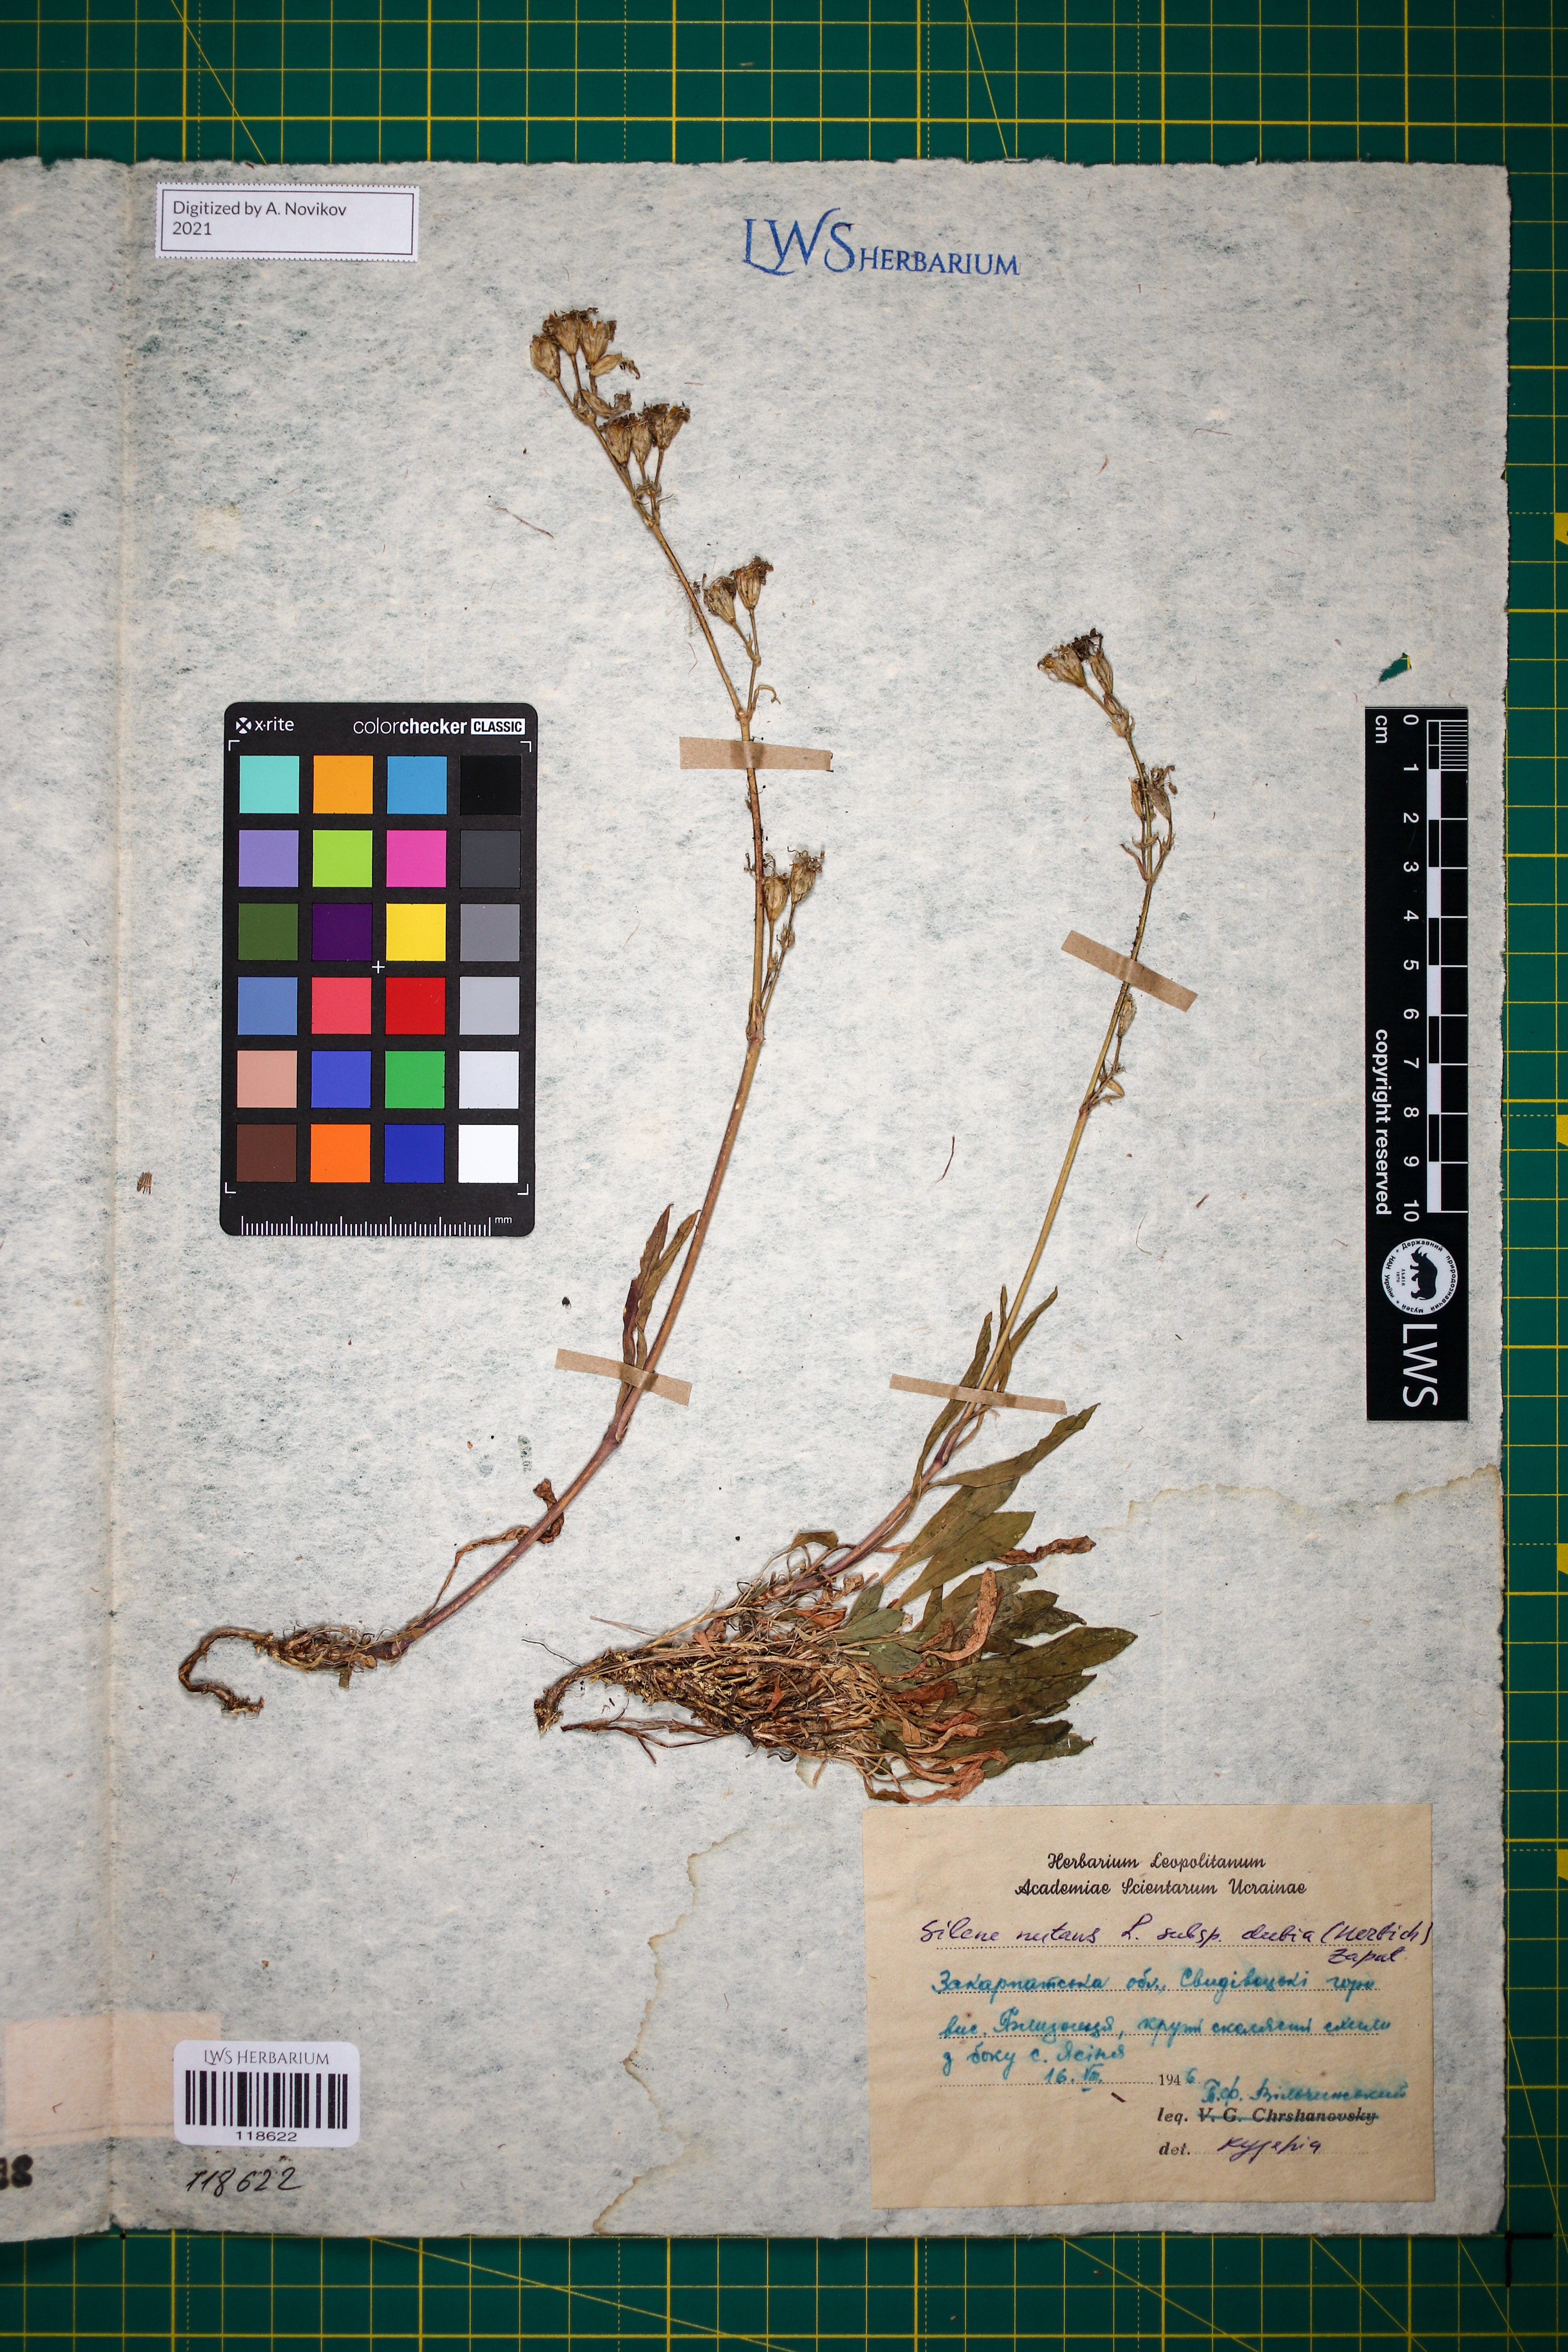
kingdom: Plantae
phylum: Tracheophyta
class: Magnoliopsida
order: Caryophyllales
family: Caryophyllaceae
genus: Silene
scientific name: Silene nutans
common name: Nottingham catchfly
